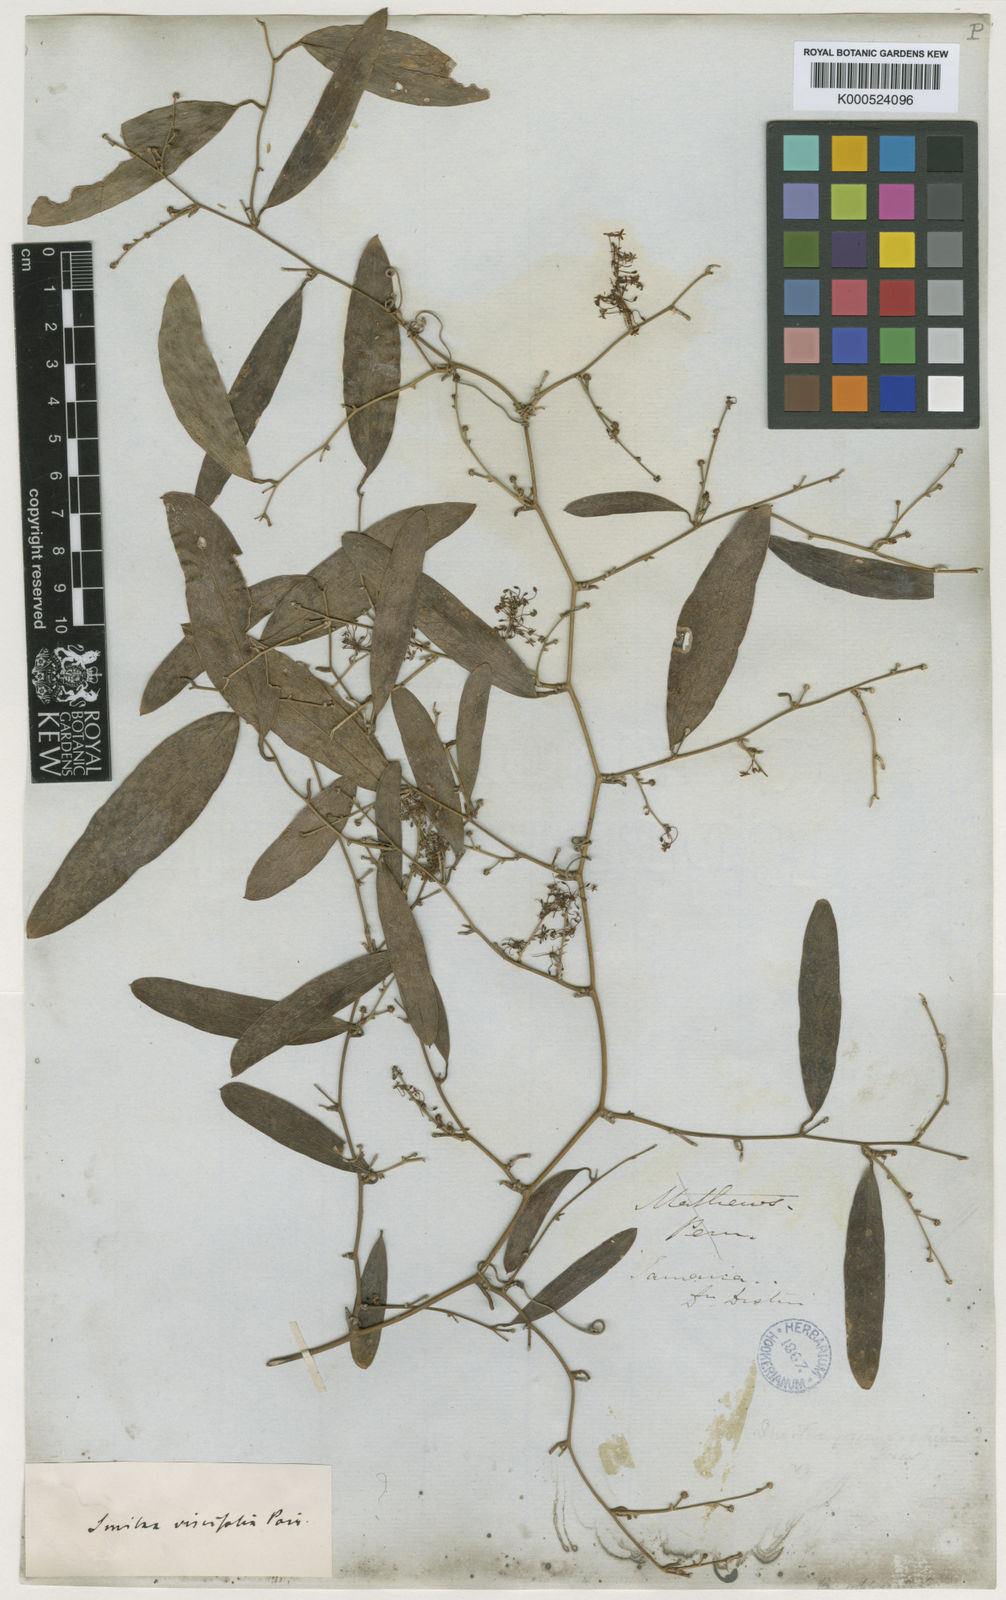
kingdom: Plantae
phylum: Tracheophyta
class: Liliopsida
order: Liliales
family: Smilacaceae
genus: Smilax
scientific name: Smilax domingensis
